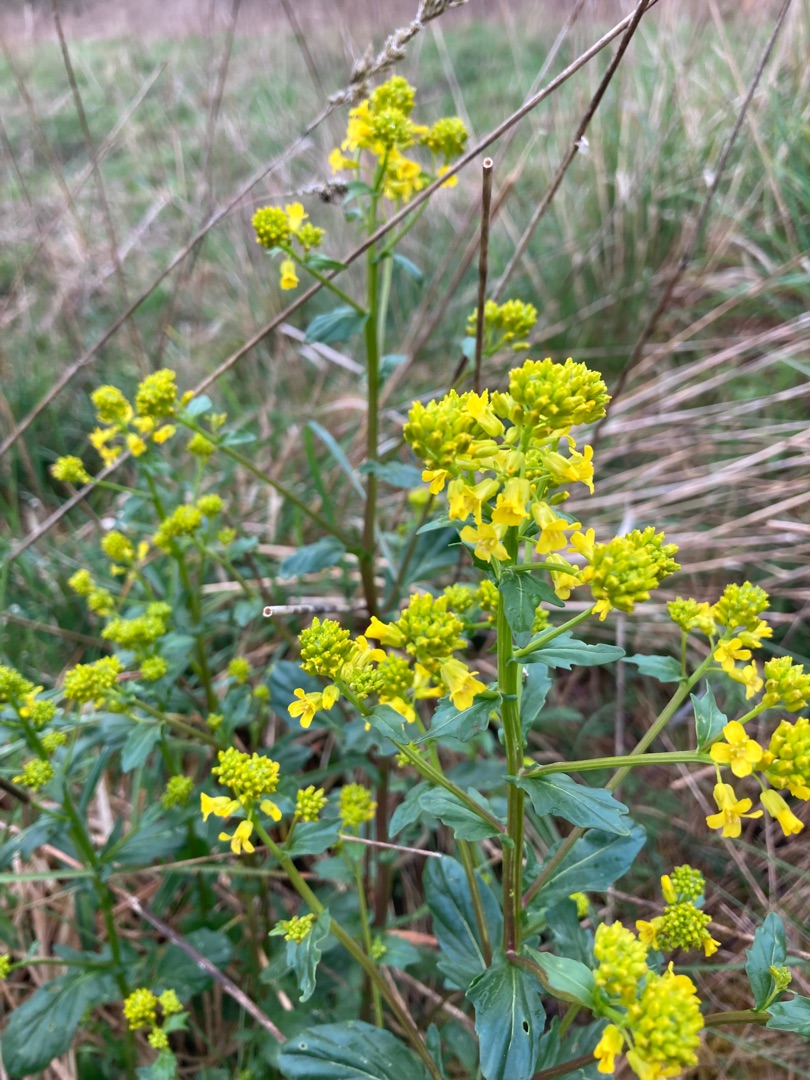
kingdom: Plantae
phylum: Tracheophyta
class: Magnoliopsida
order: Brassicales
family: Brassicaceae
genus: Barbarea
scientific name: Barbarea vulgaris
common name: Almindelig vinterkarse
